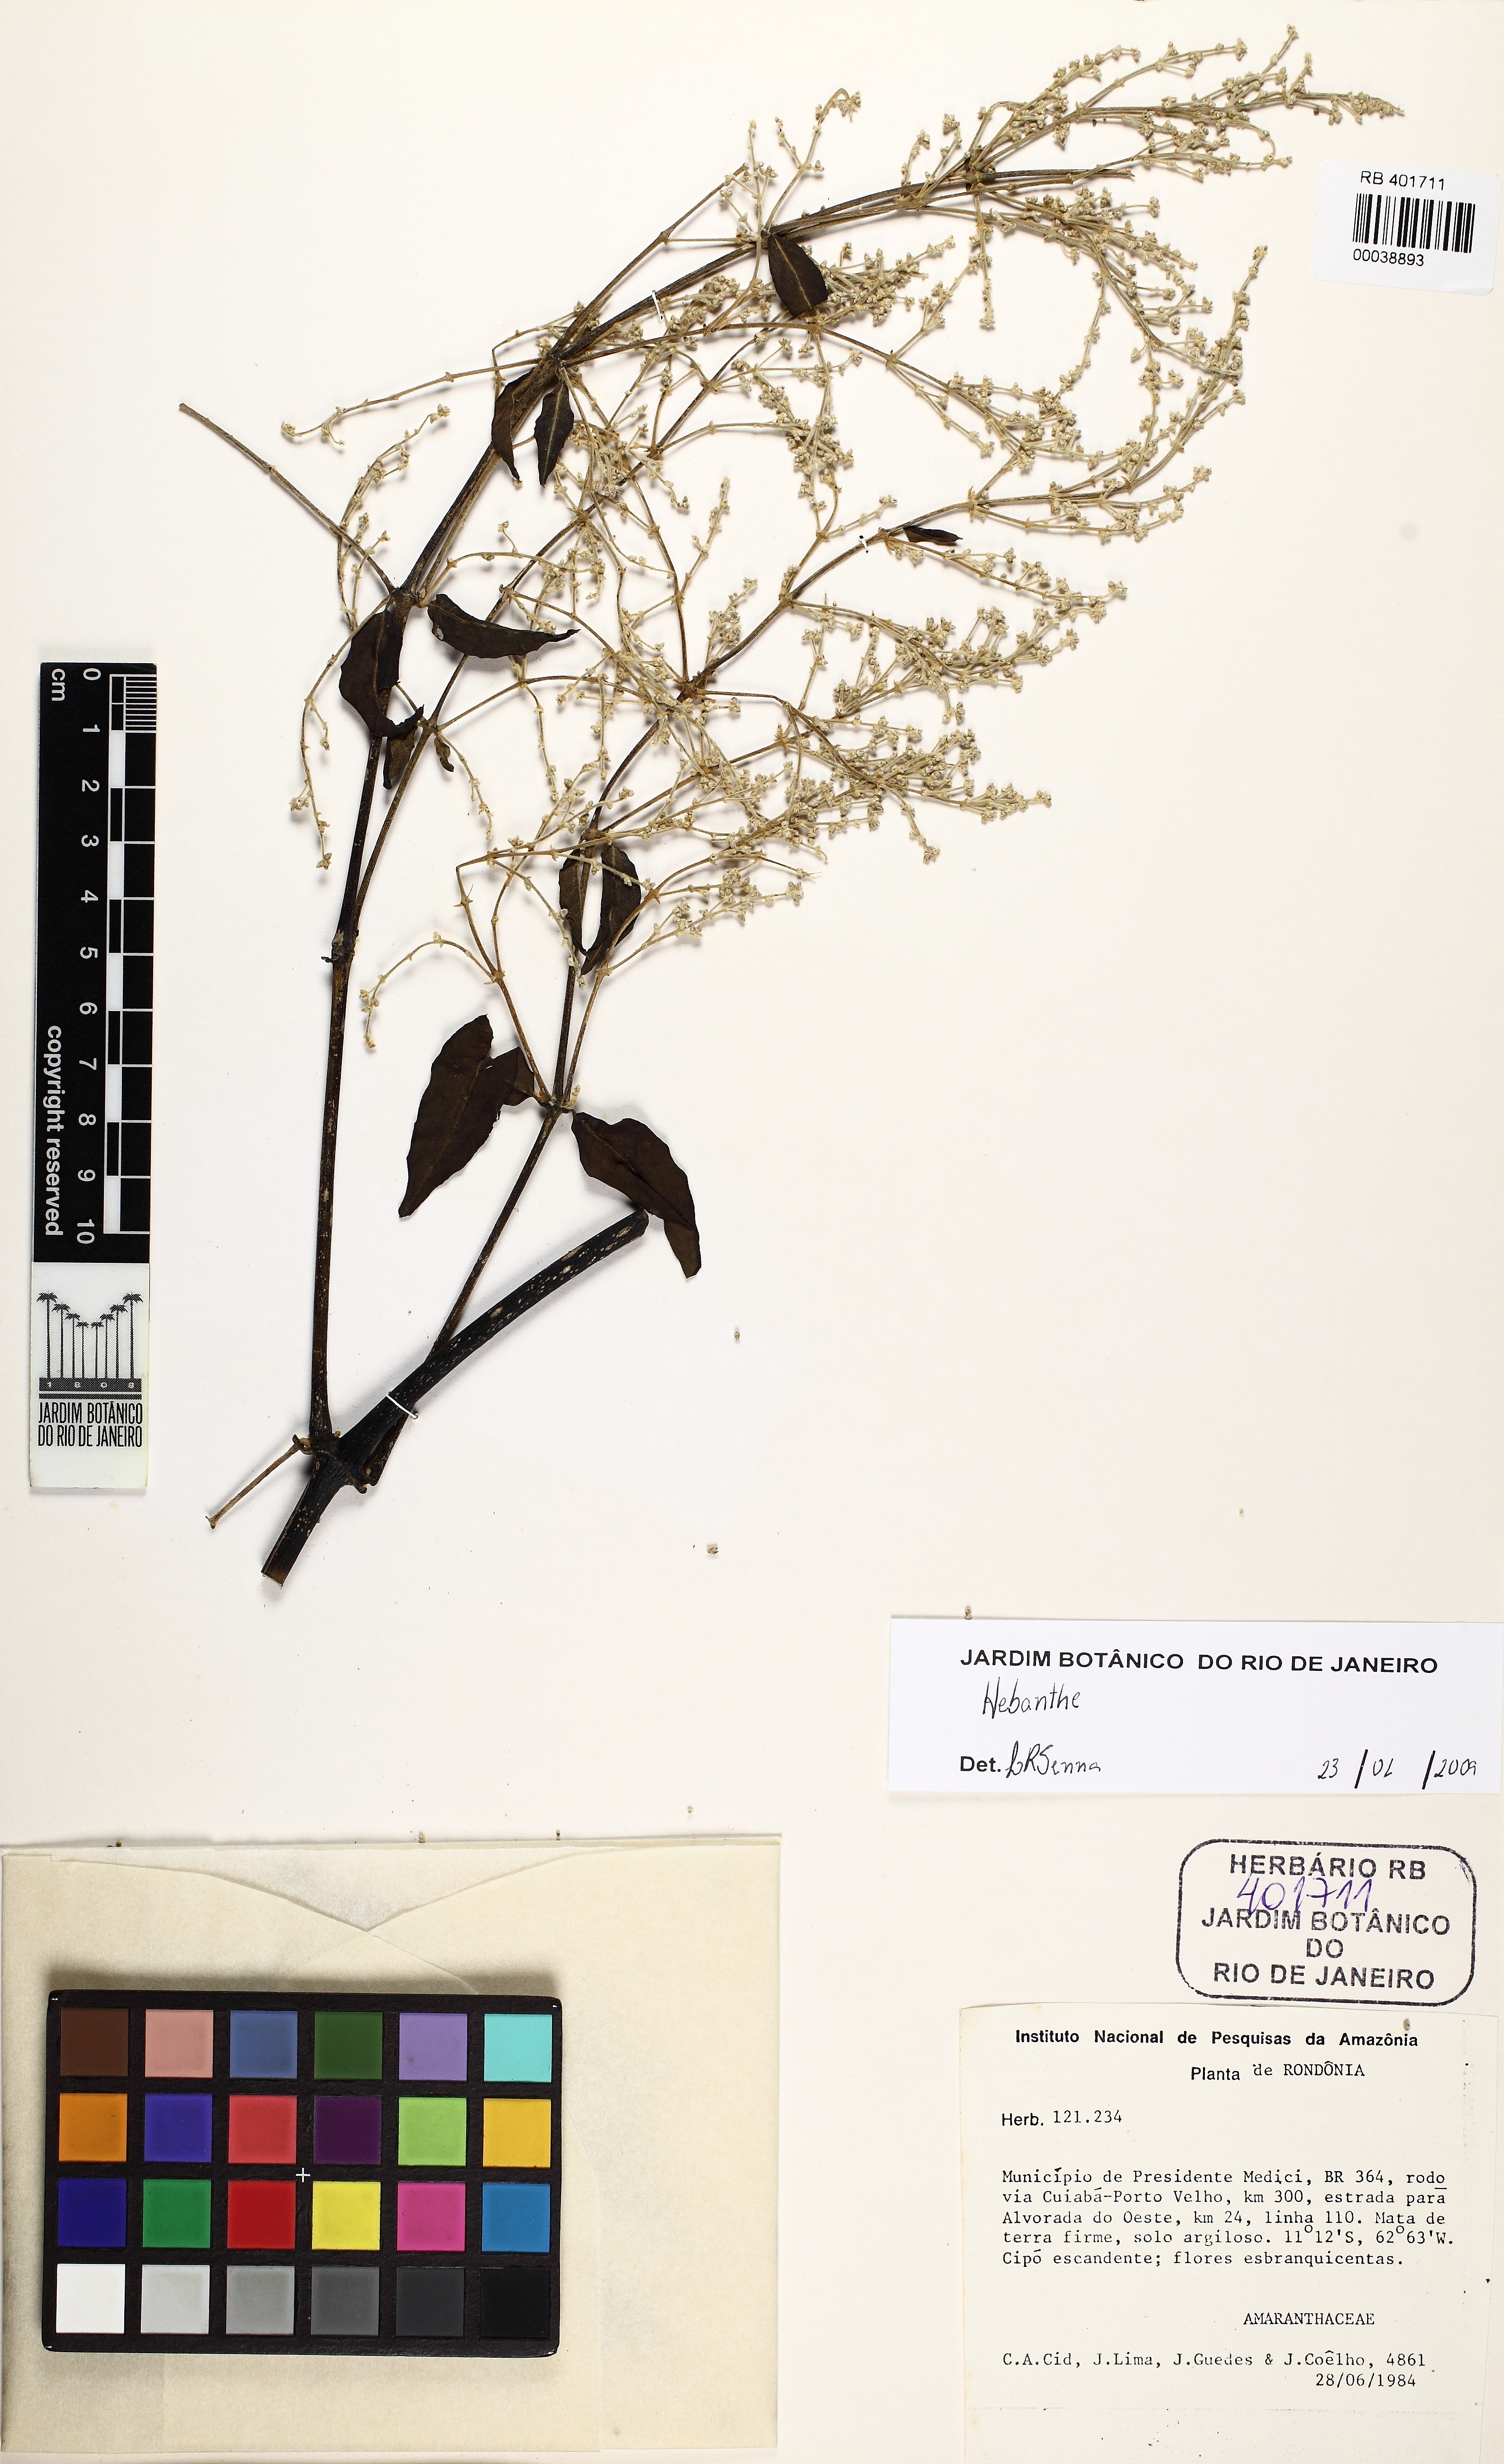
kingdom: Plantae
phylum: Tracheophyta
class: Magnoliopsida
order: Caryophyllales
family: Amaranthaceae
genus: Hebanthe
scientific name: Hebanthe
